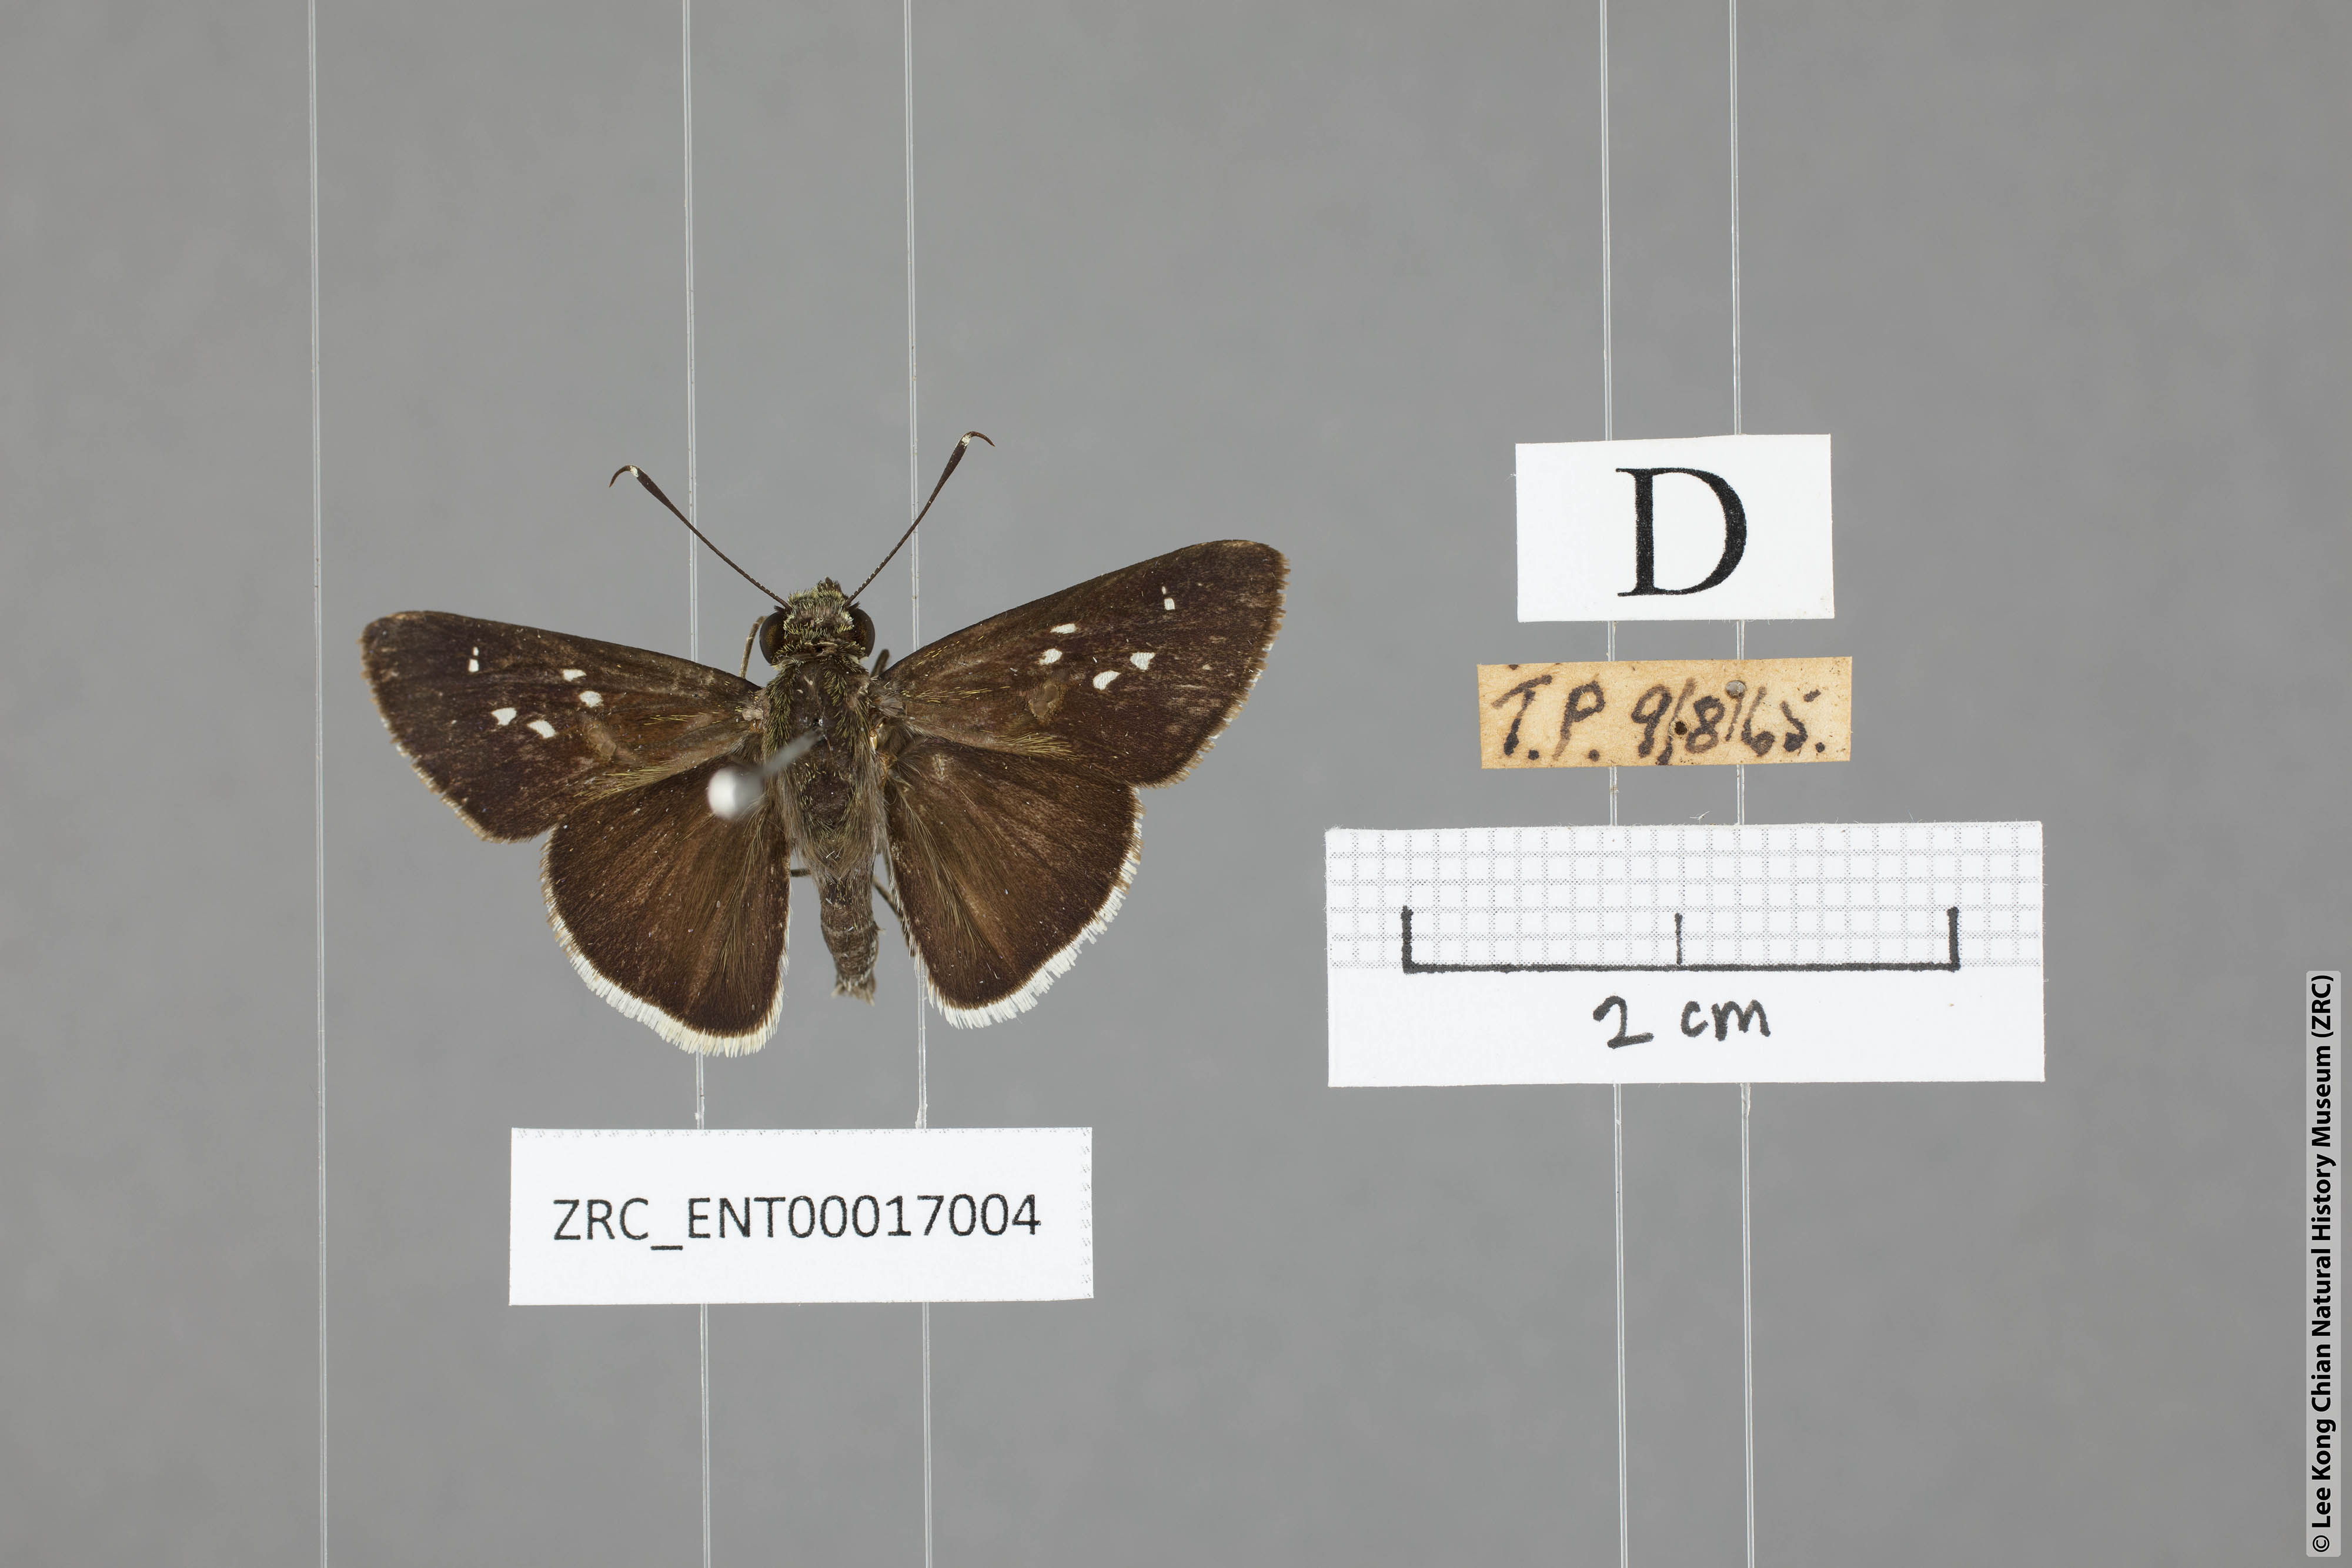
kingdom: Animalia
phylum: Arthropoda
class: Insecta
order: Lepidoptera
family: Hesperiidae
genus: Halpe
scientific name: Halpe insignis
